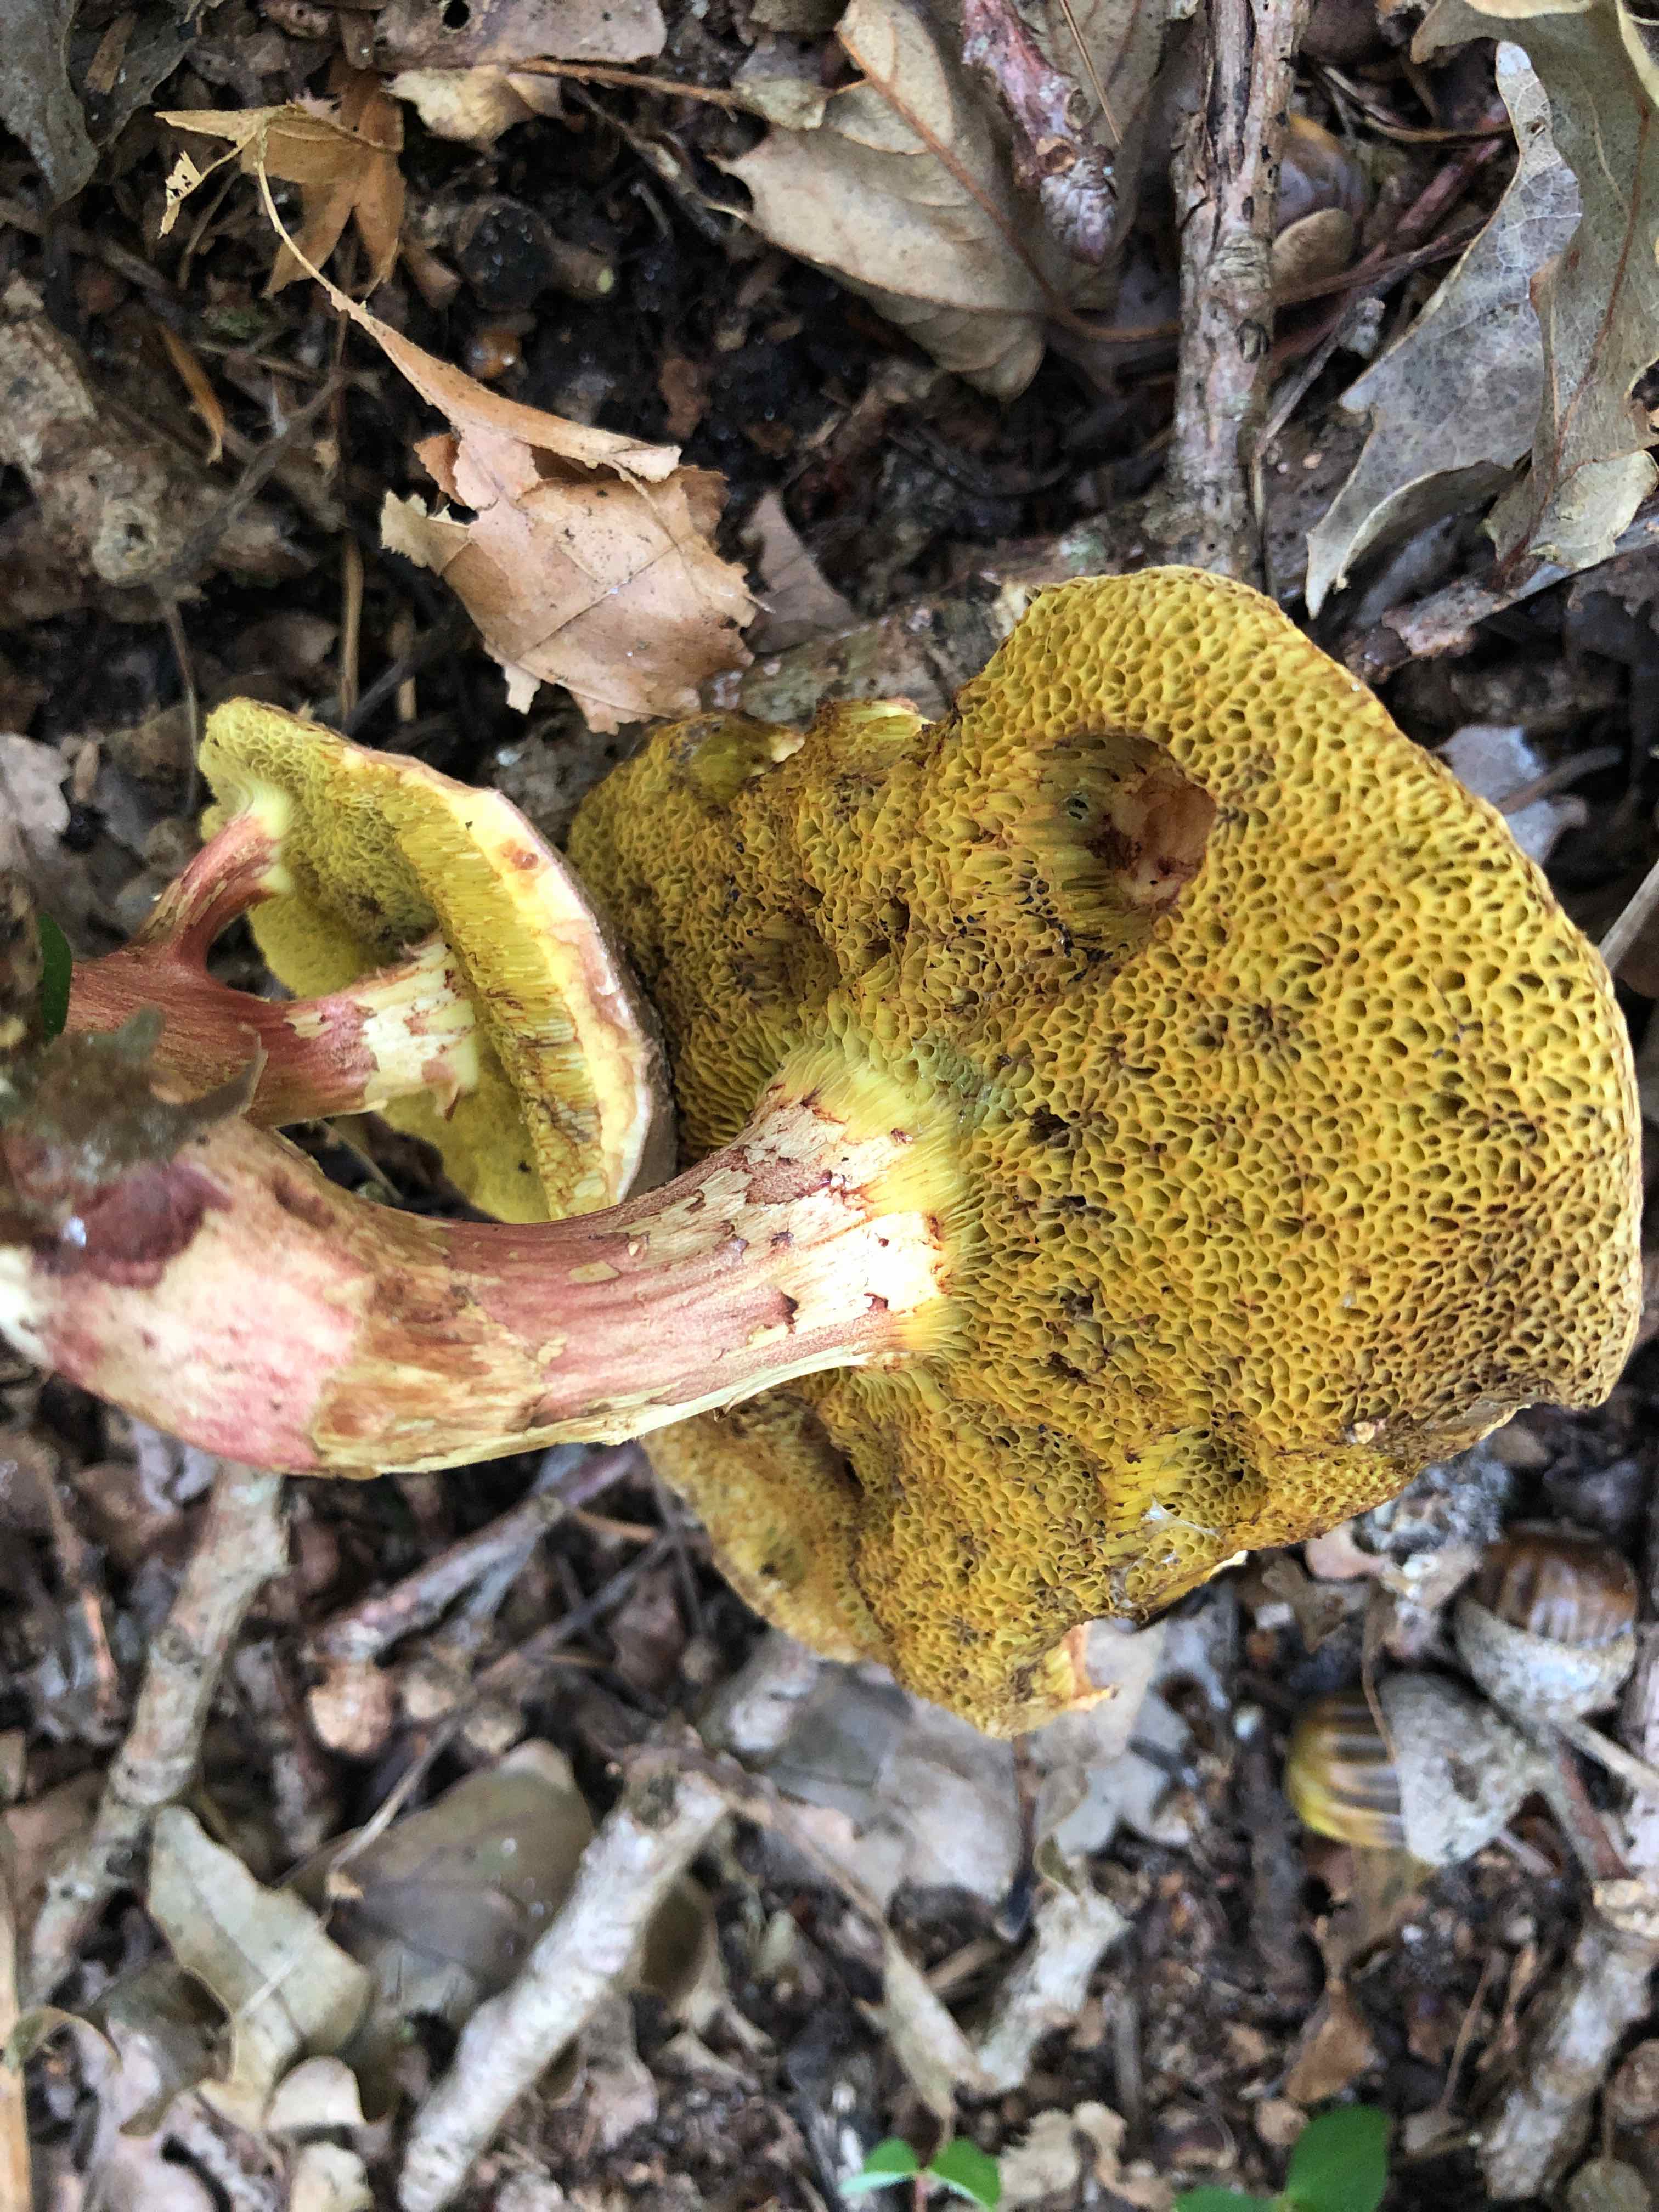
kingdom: Fungi
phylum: Basidiomycota
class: Agaricomycetes
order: Boletales
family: Boletaceae
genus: Xerocomellus
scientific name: Xerocomellus chrysenteron
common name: rødsprukken rørhat
